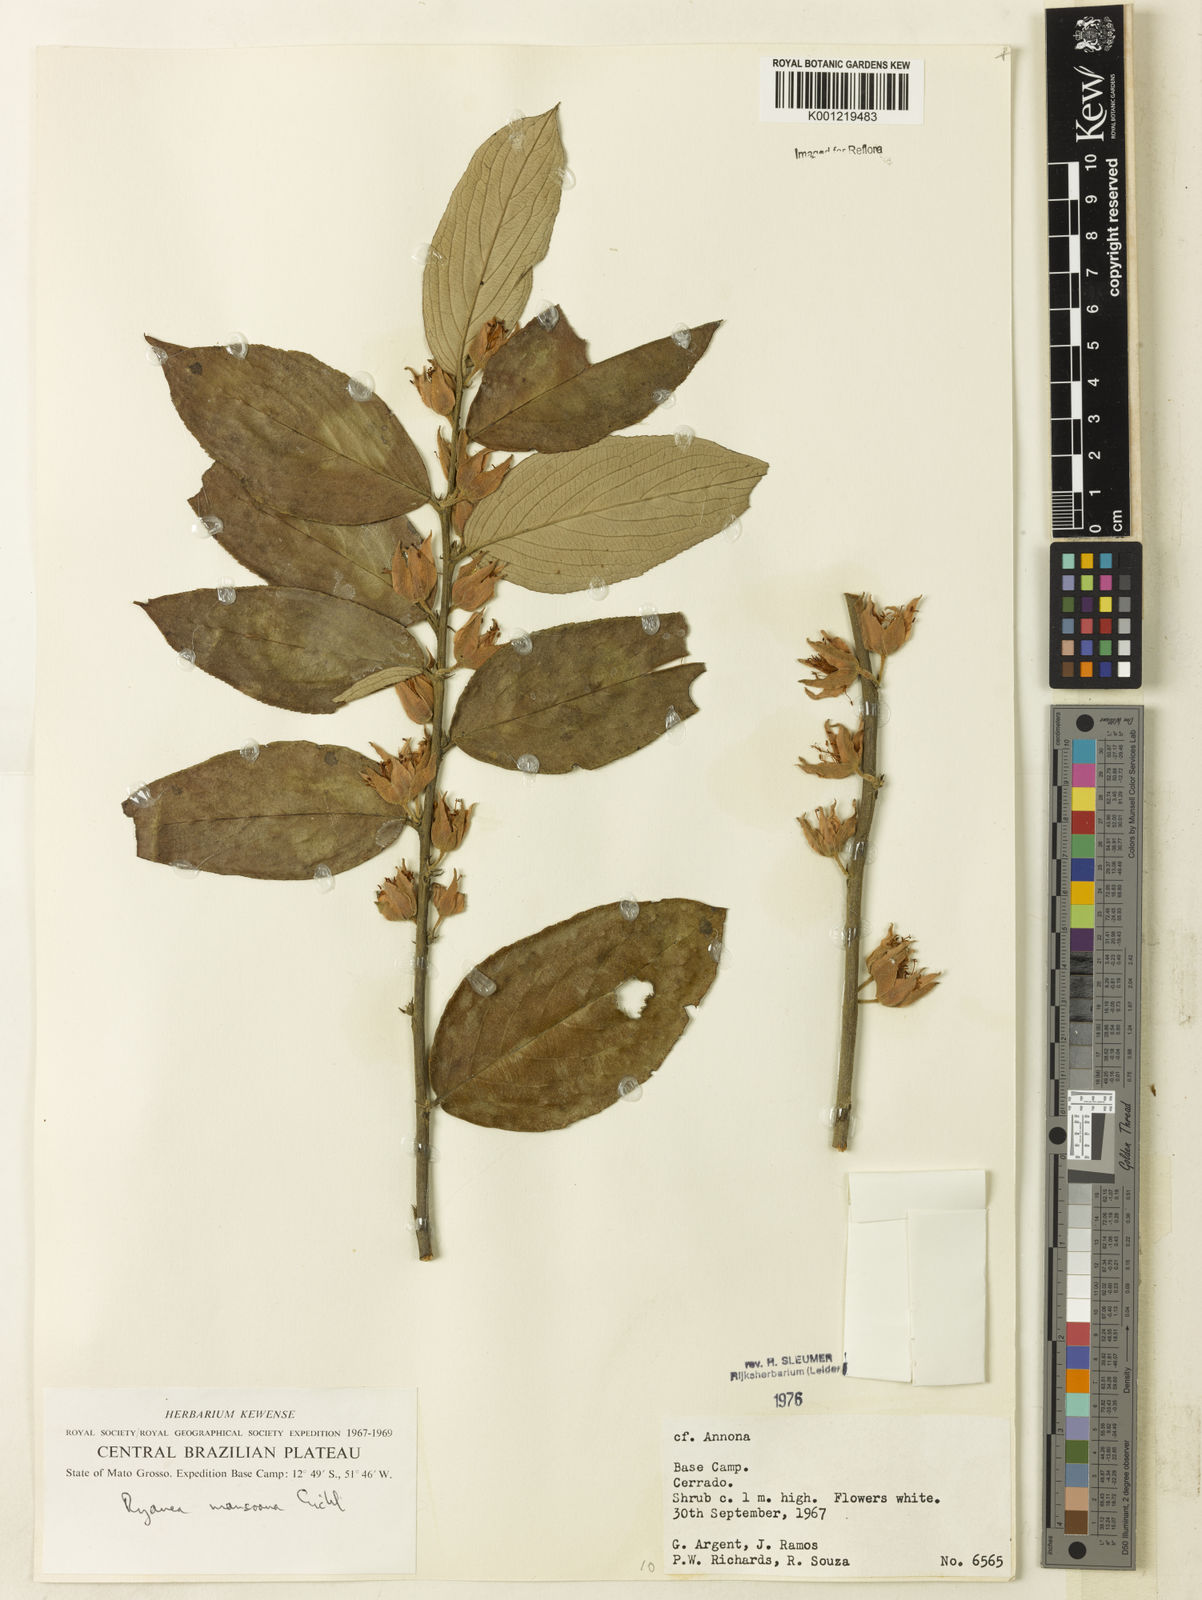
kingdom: Plantae
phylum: Tracheophyta
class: Magnoliopsida
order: Malpighiales
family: Salicaceae
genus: Ryania
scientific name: Ryania mansoana
